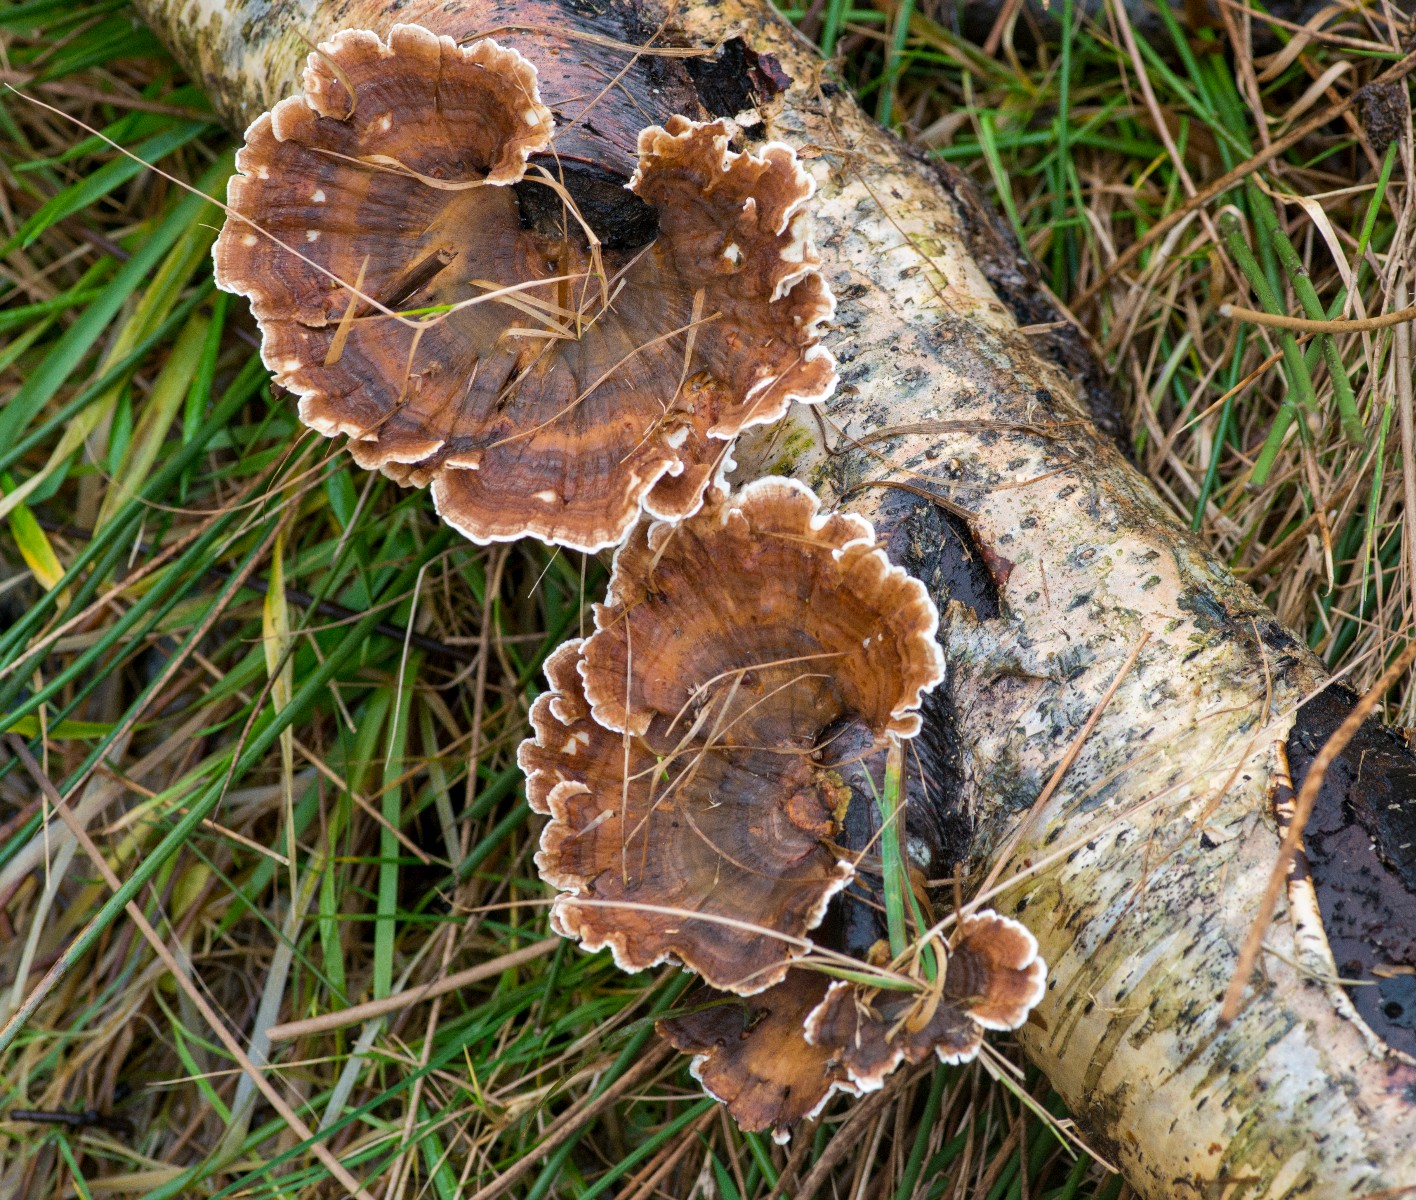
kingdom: Fungi
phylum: Basidiomycota
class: Agaricomycetes
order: Polyporales
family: Polyporaceae
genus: Trametes
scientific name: Trametes versicolor
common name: broget læderporesvamp
